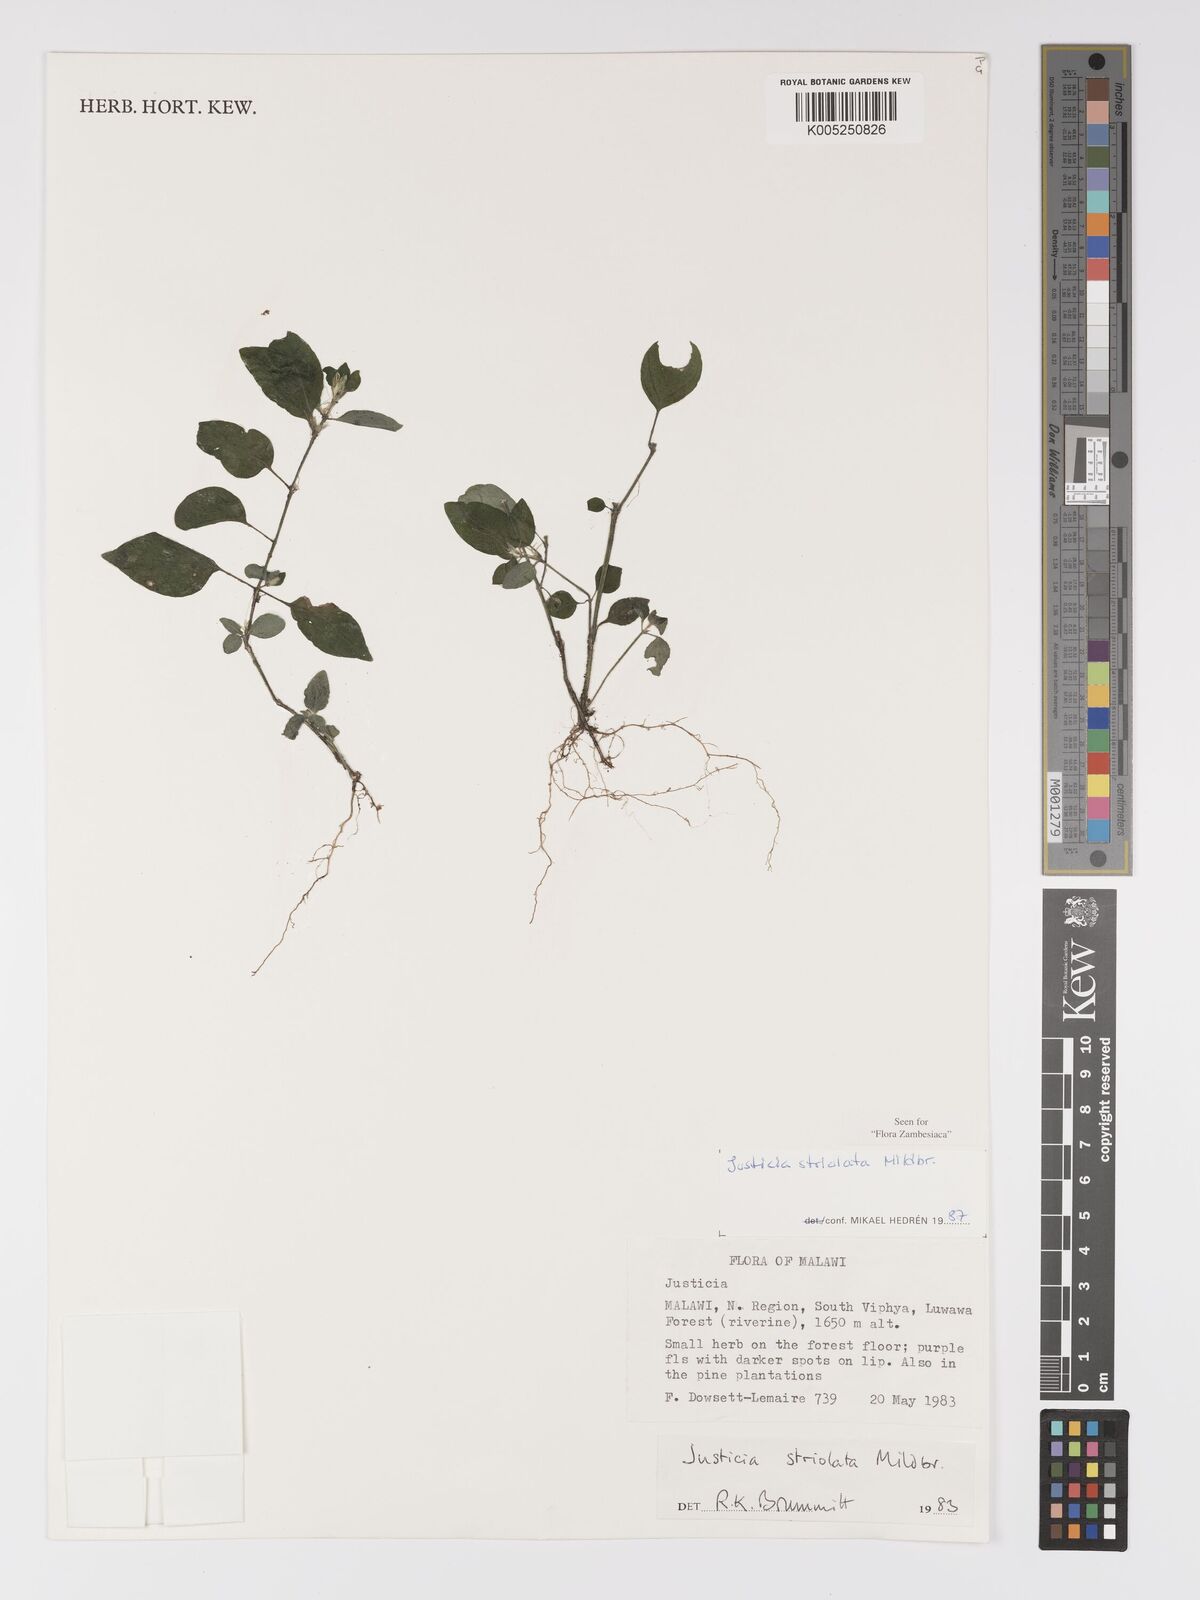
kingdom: Plantae
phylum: Tracheophyta
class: Magnoliopsida
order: Lamiales
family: Acanthaceae
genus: Justicia
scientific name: Justicia striolata
